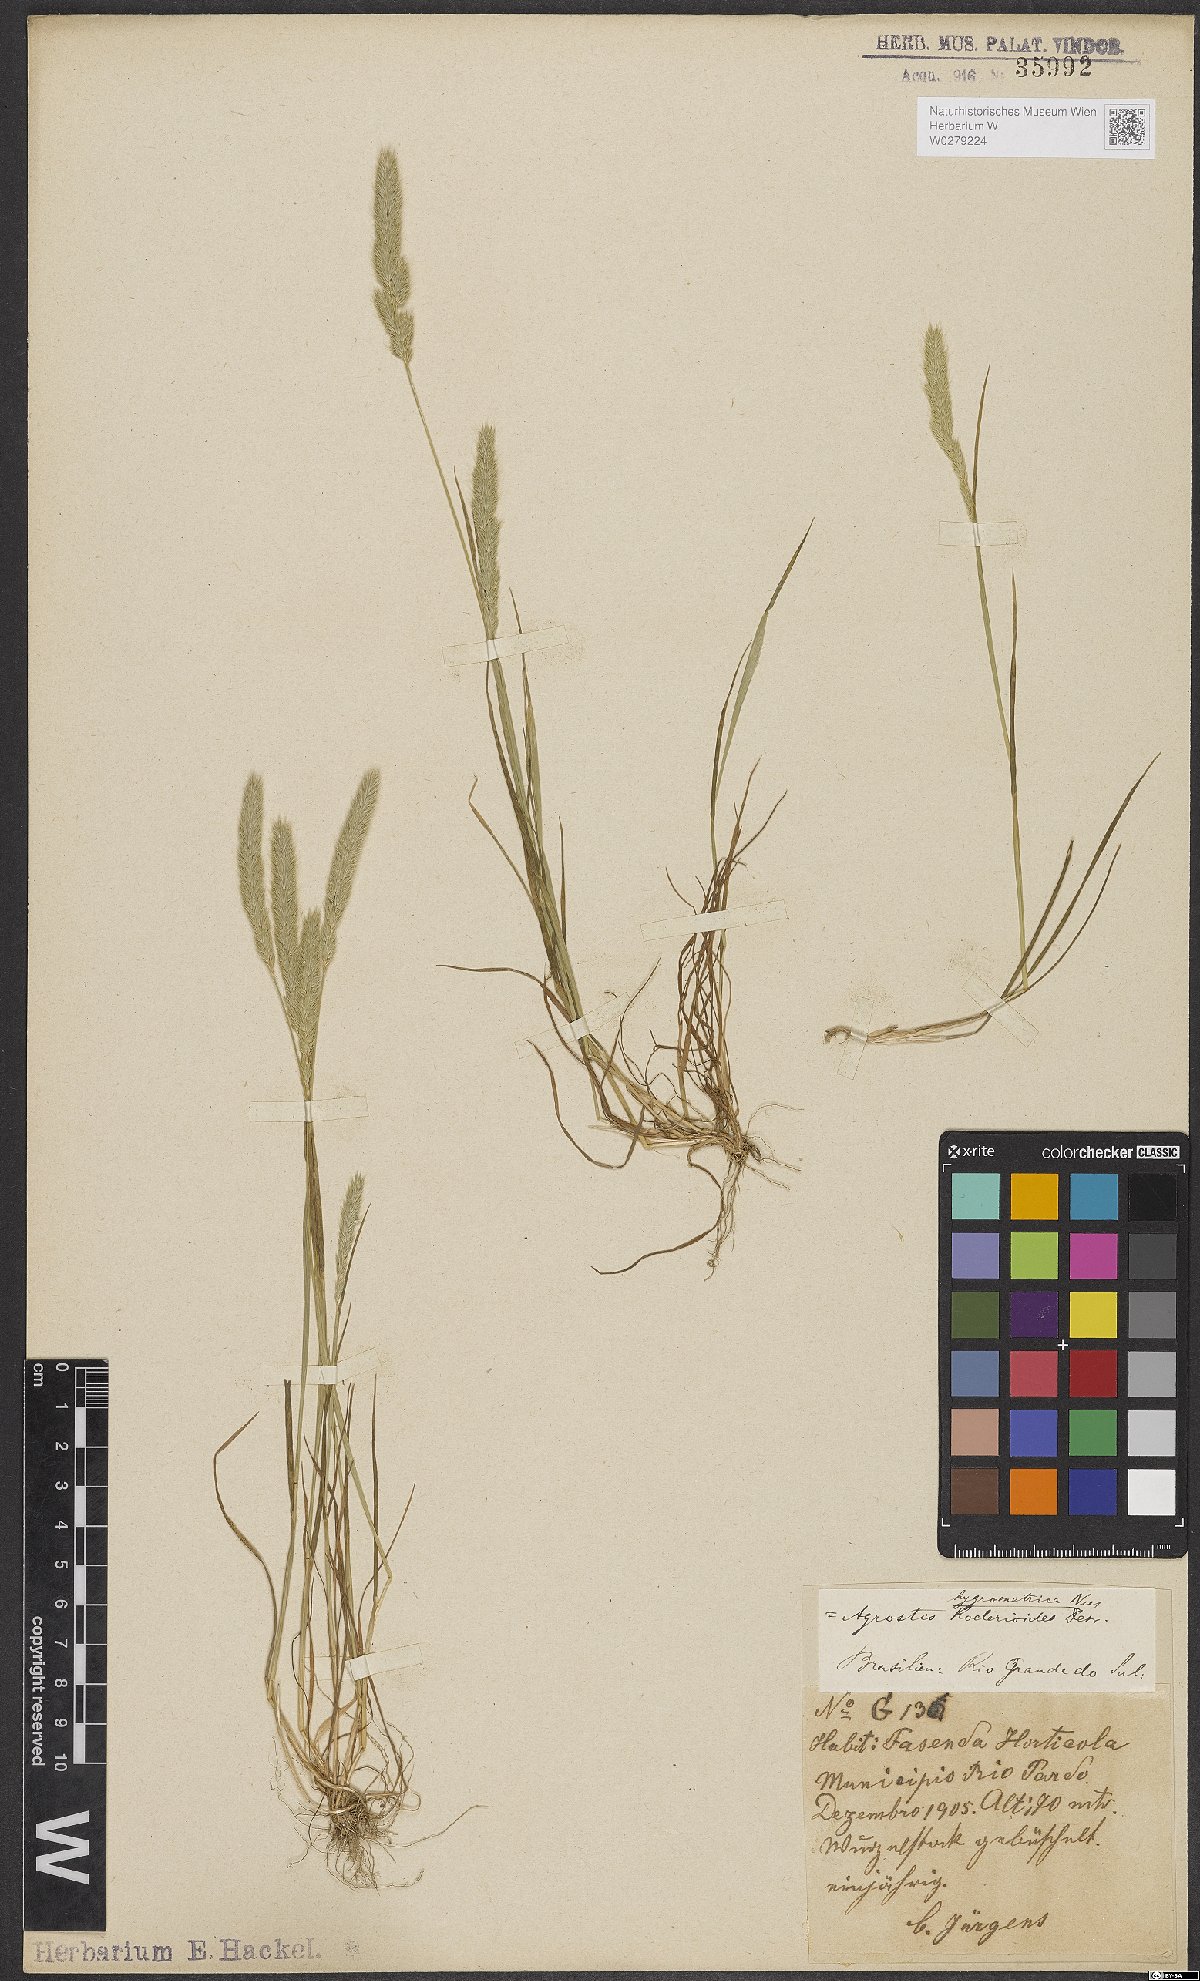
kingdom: Plantae
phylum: Tracheophyta
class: Liliopsida
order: Poales
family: Poaceae
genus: Agrostis
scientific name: Agrostis hygrometrica
